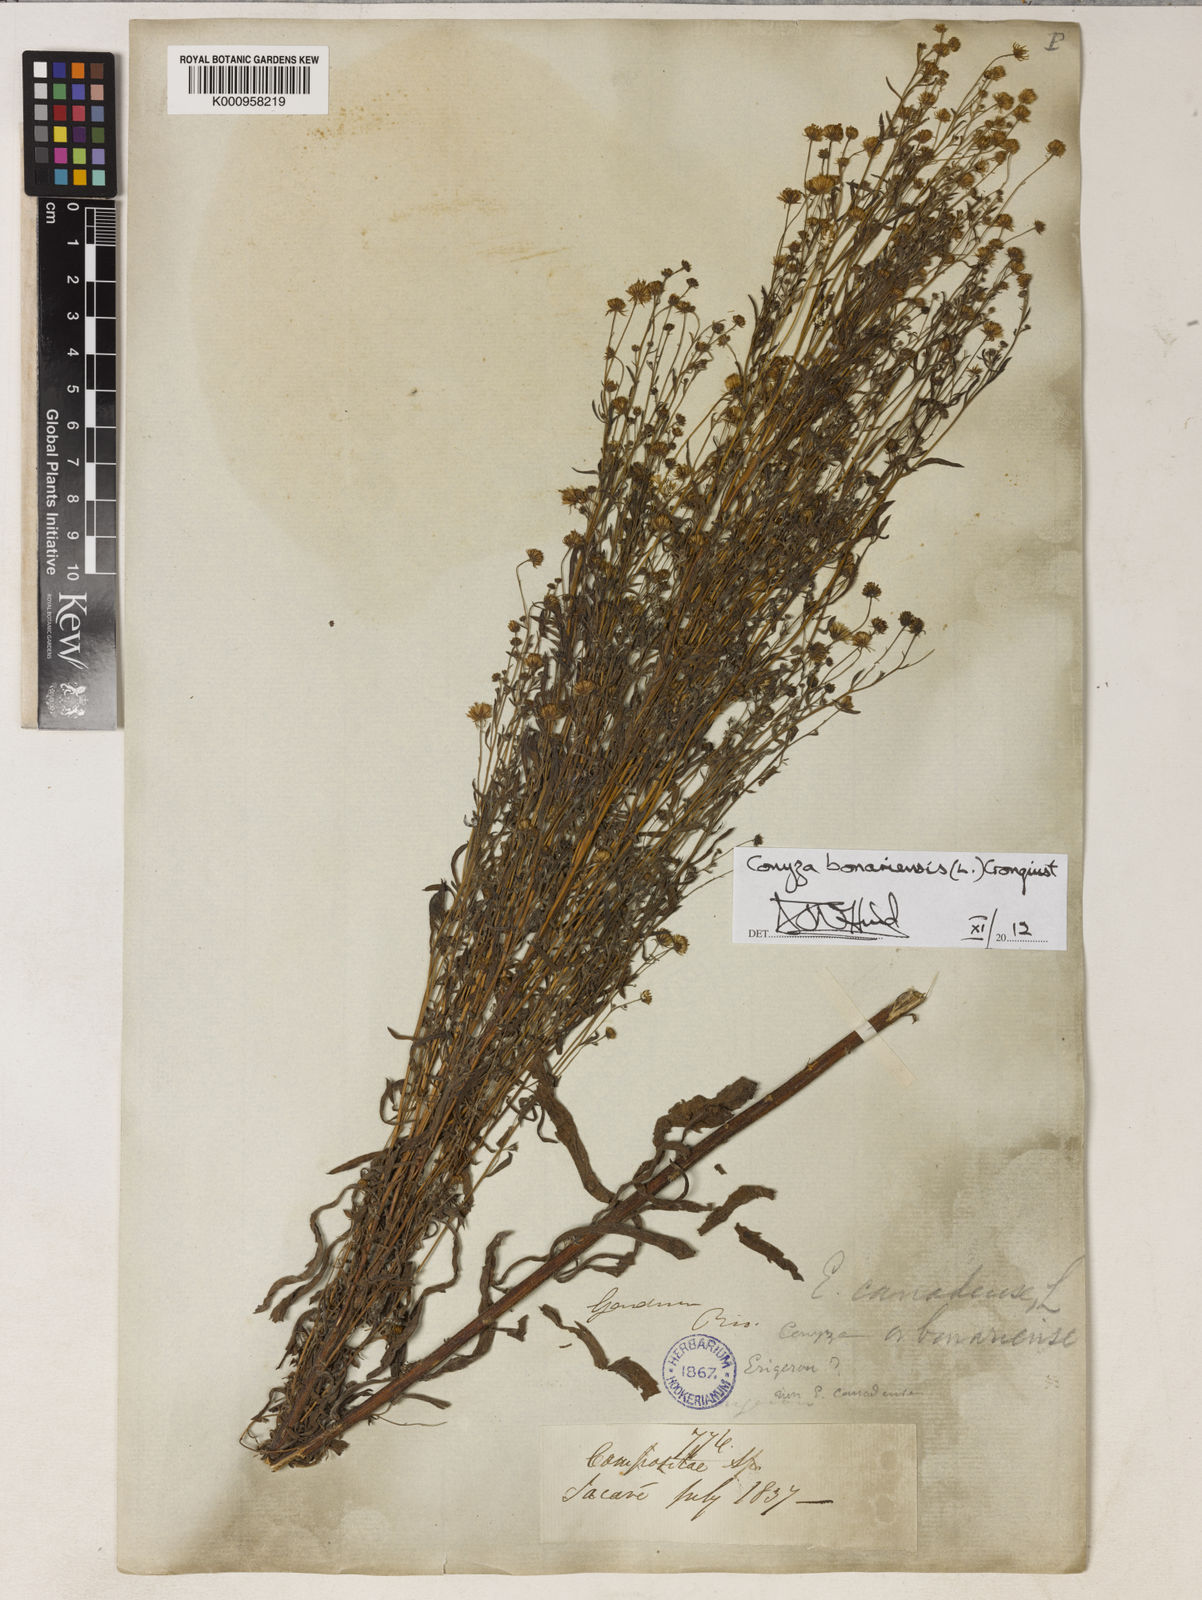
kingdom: Plantae
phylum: Tracheophyta
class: Magnoliopsida
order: Asterales
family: Asteraceae
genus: Erigeron
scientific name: Erigeron bonariensis
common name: Argentine fleabane
